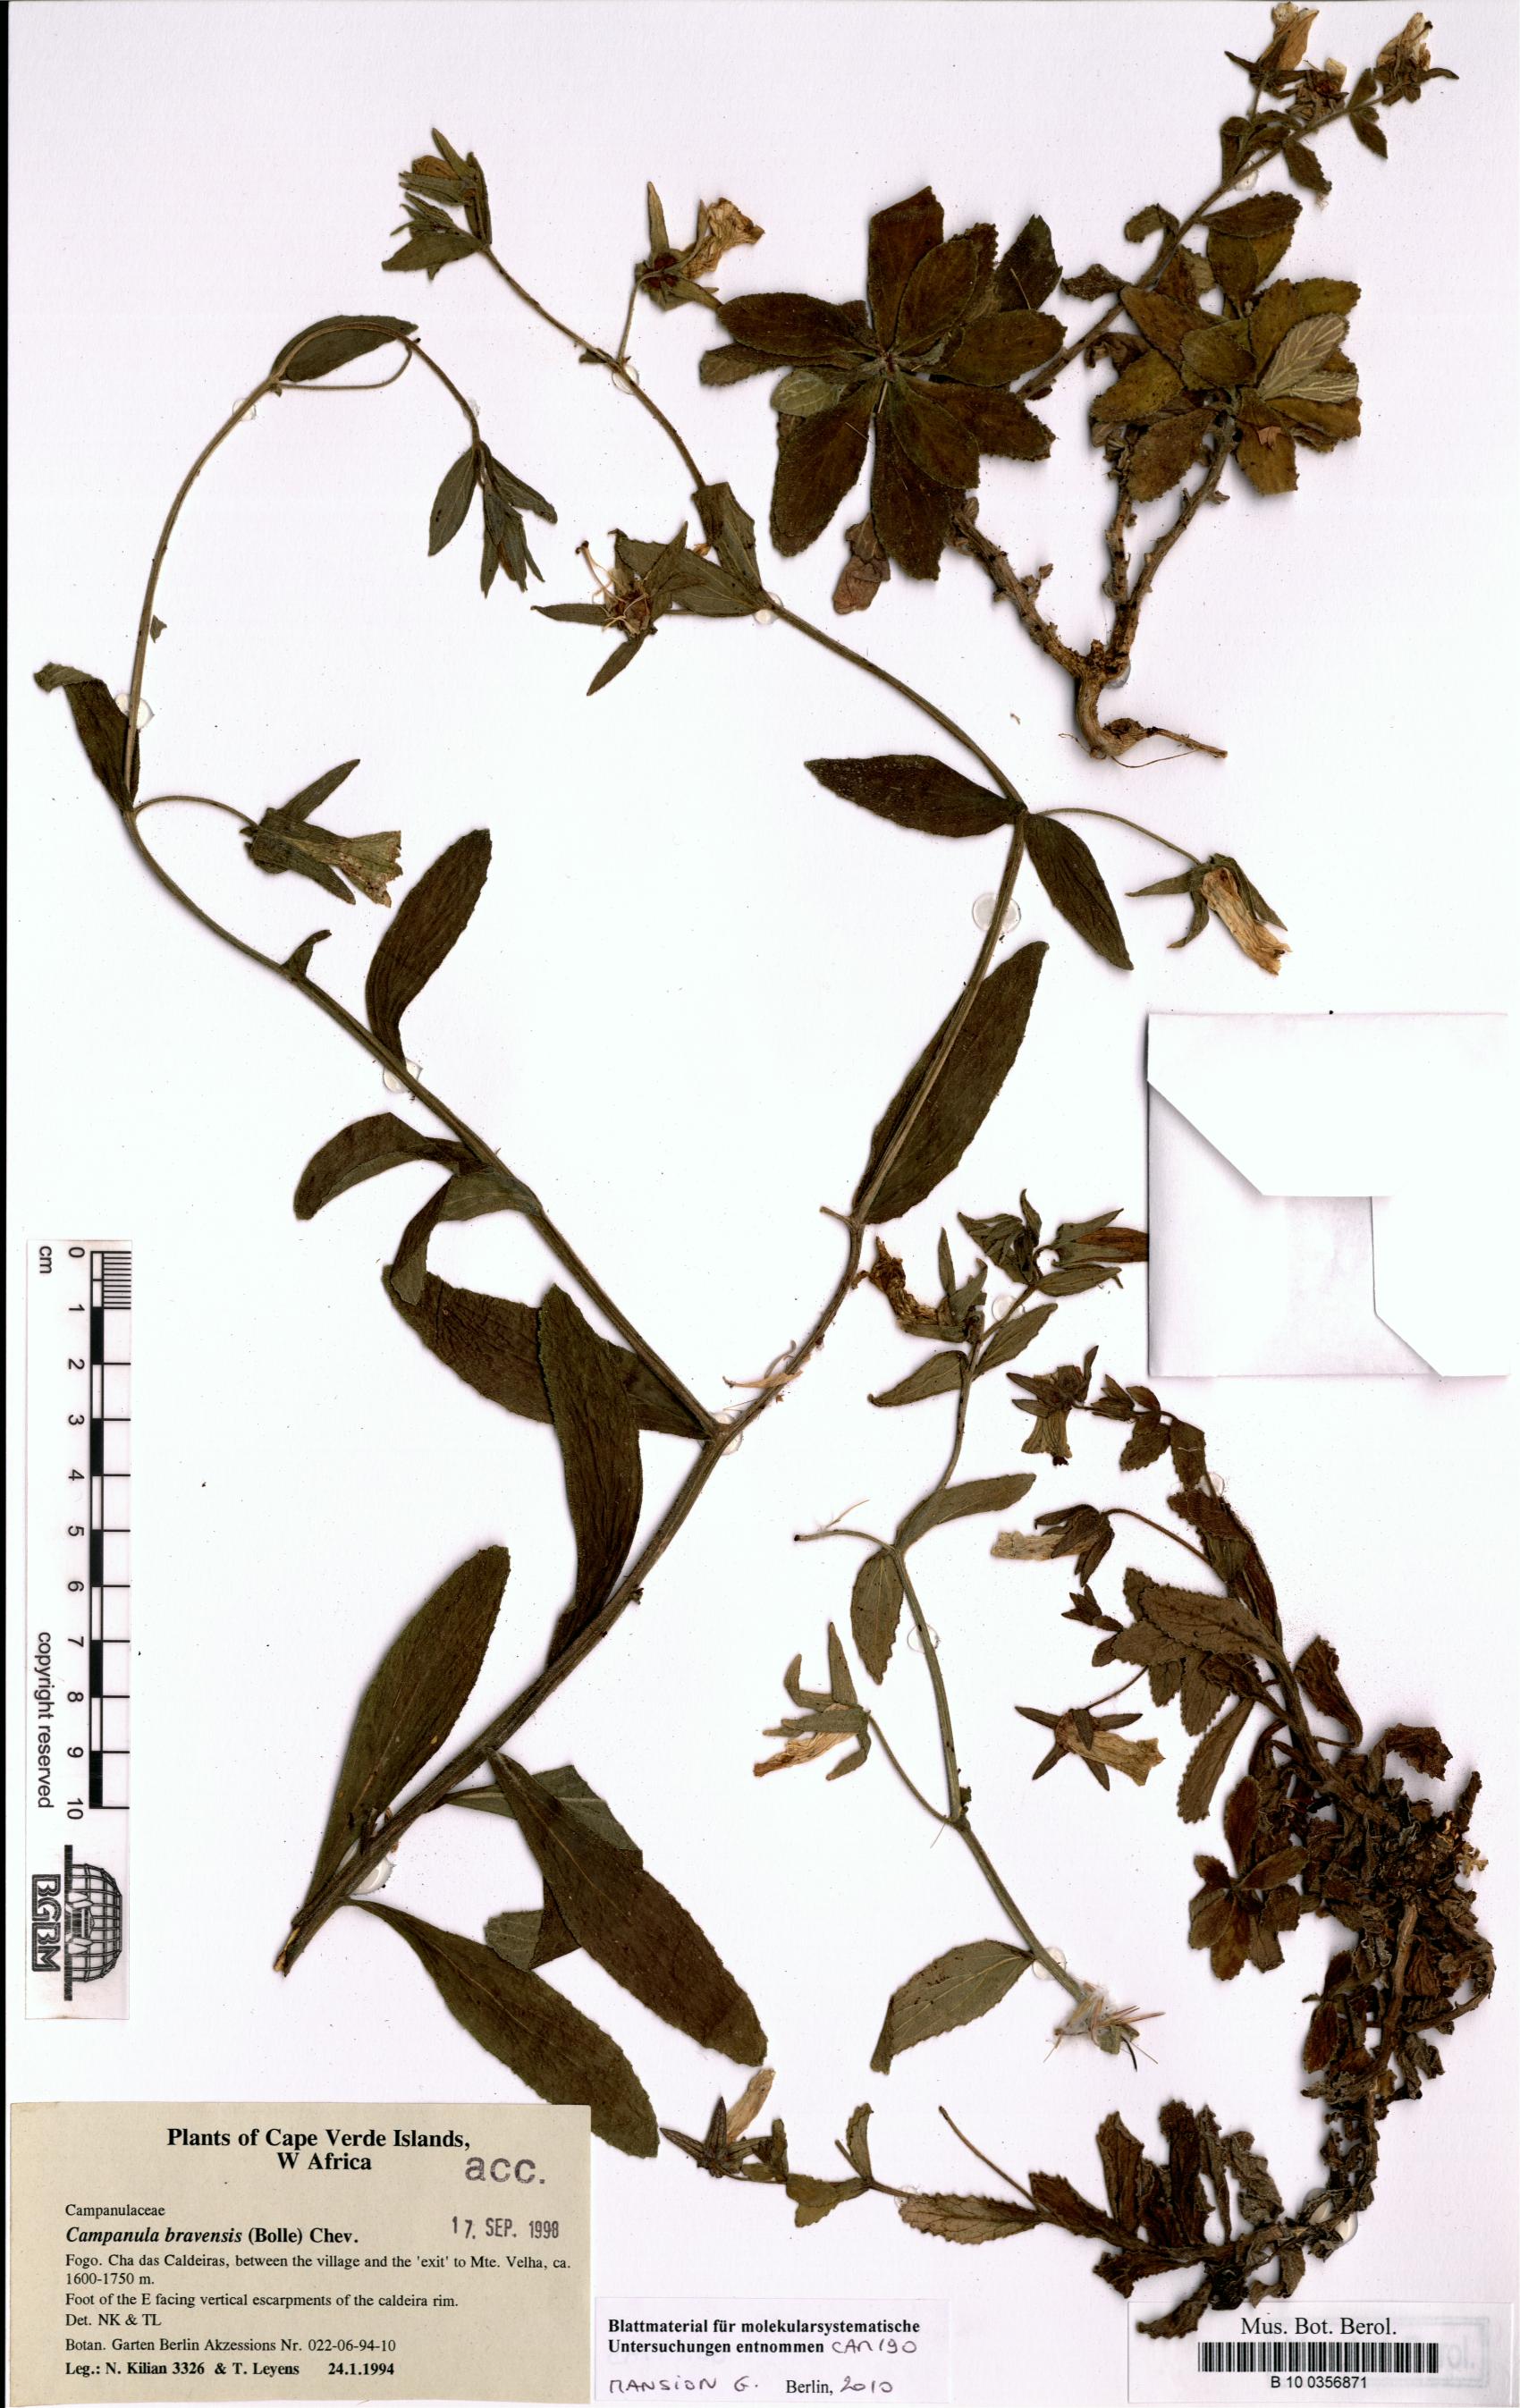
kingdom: Plantae
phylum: Tracheophyta
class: Magnoliopsida
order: Asterales
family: Campanulaceae
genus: Campanula
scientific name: Campanula bravensis
